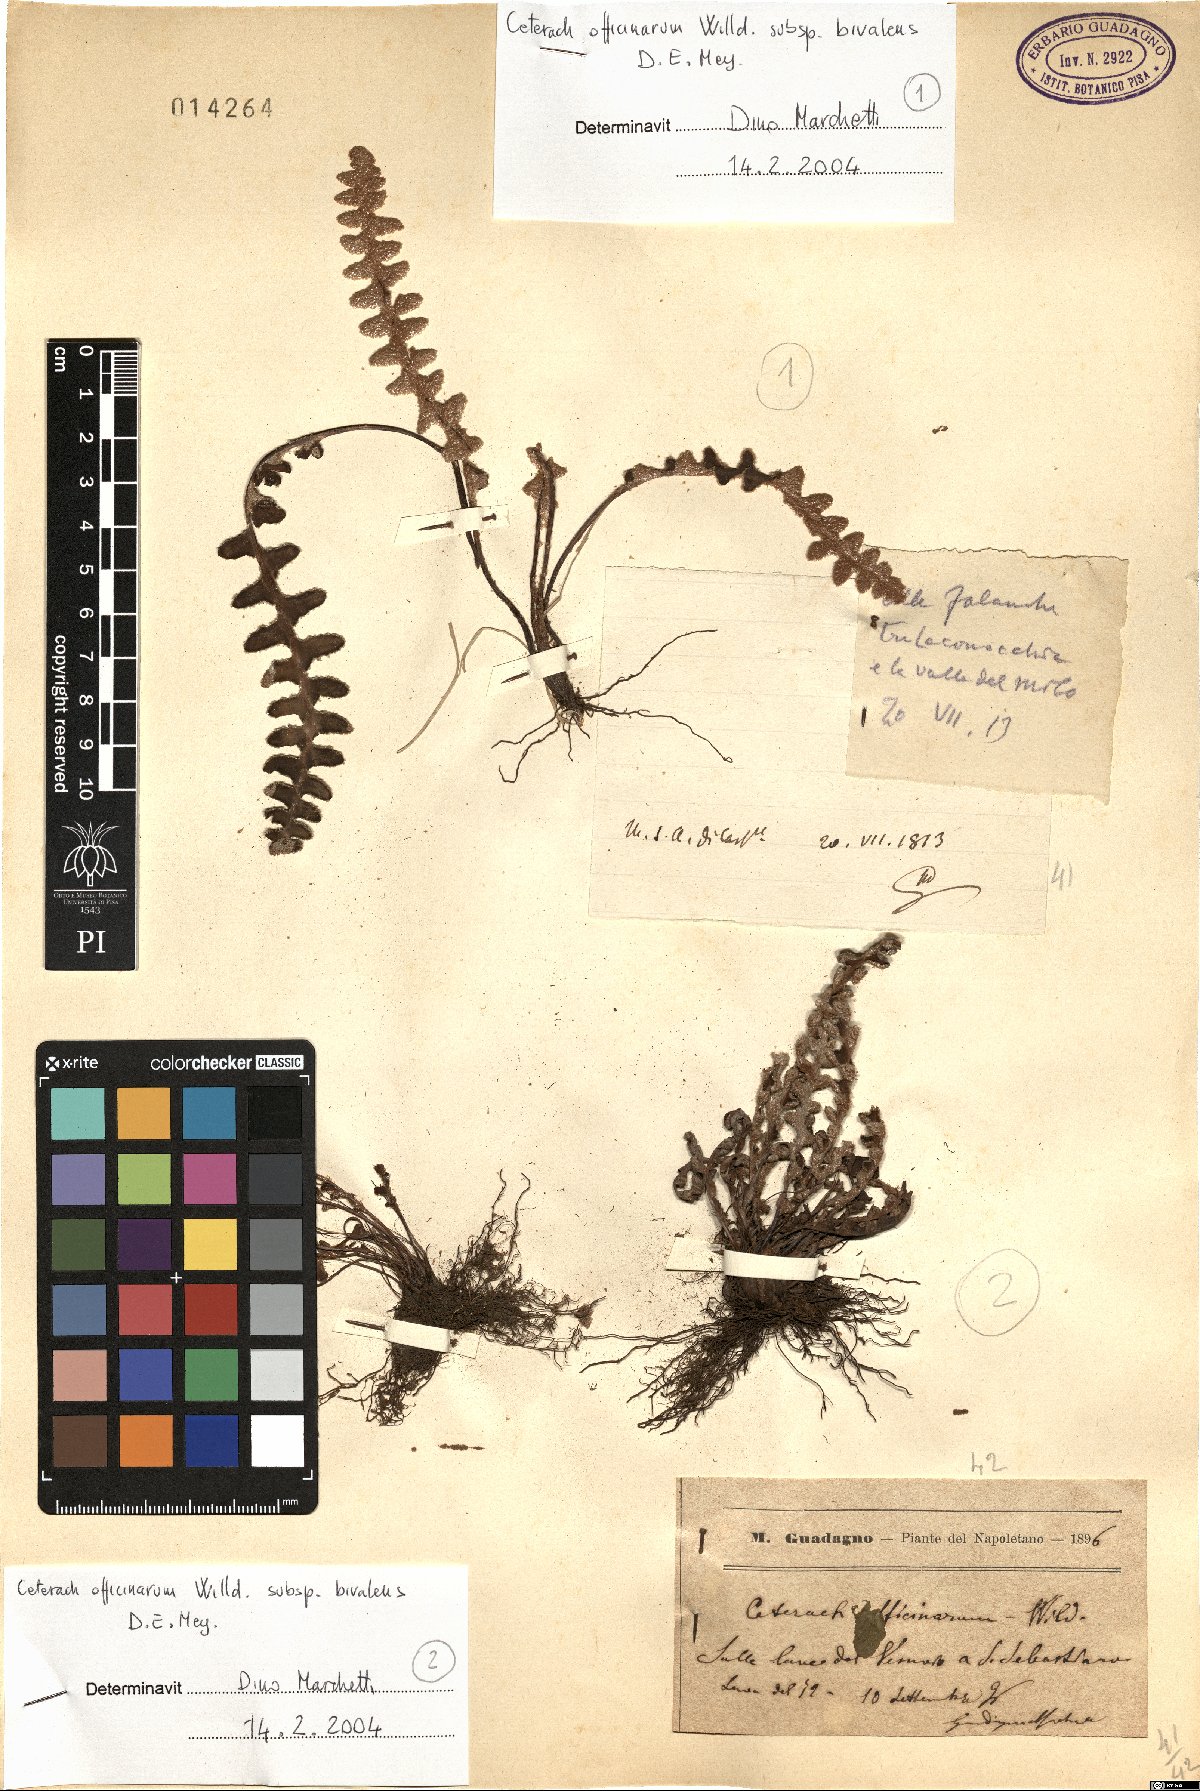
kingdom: Plantae
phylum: Tracheophyta
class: Polypodiopsida
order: Polypodiales
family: Aspleniaceae
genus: Asplenium
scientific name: Asplenium ceterach
